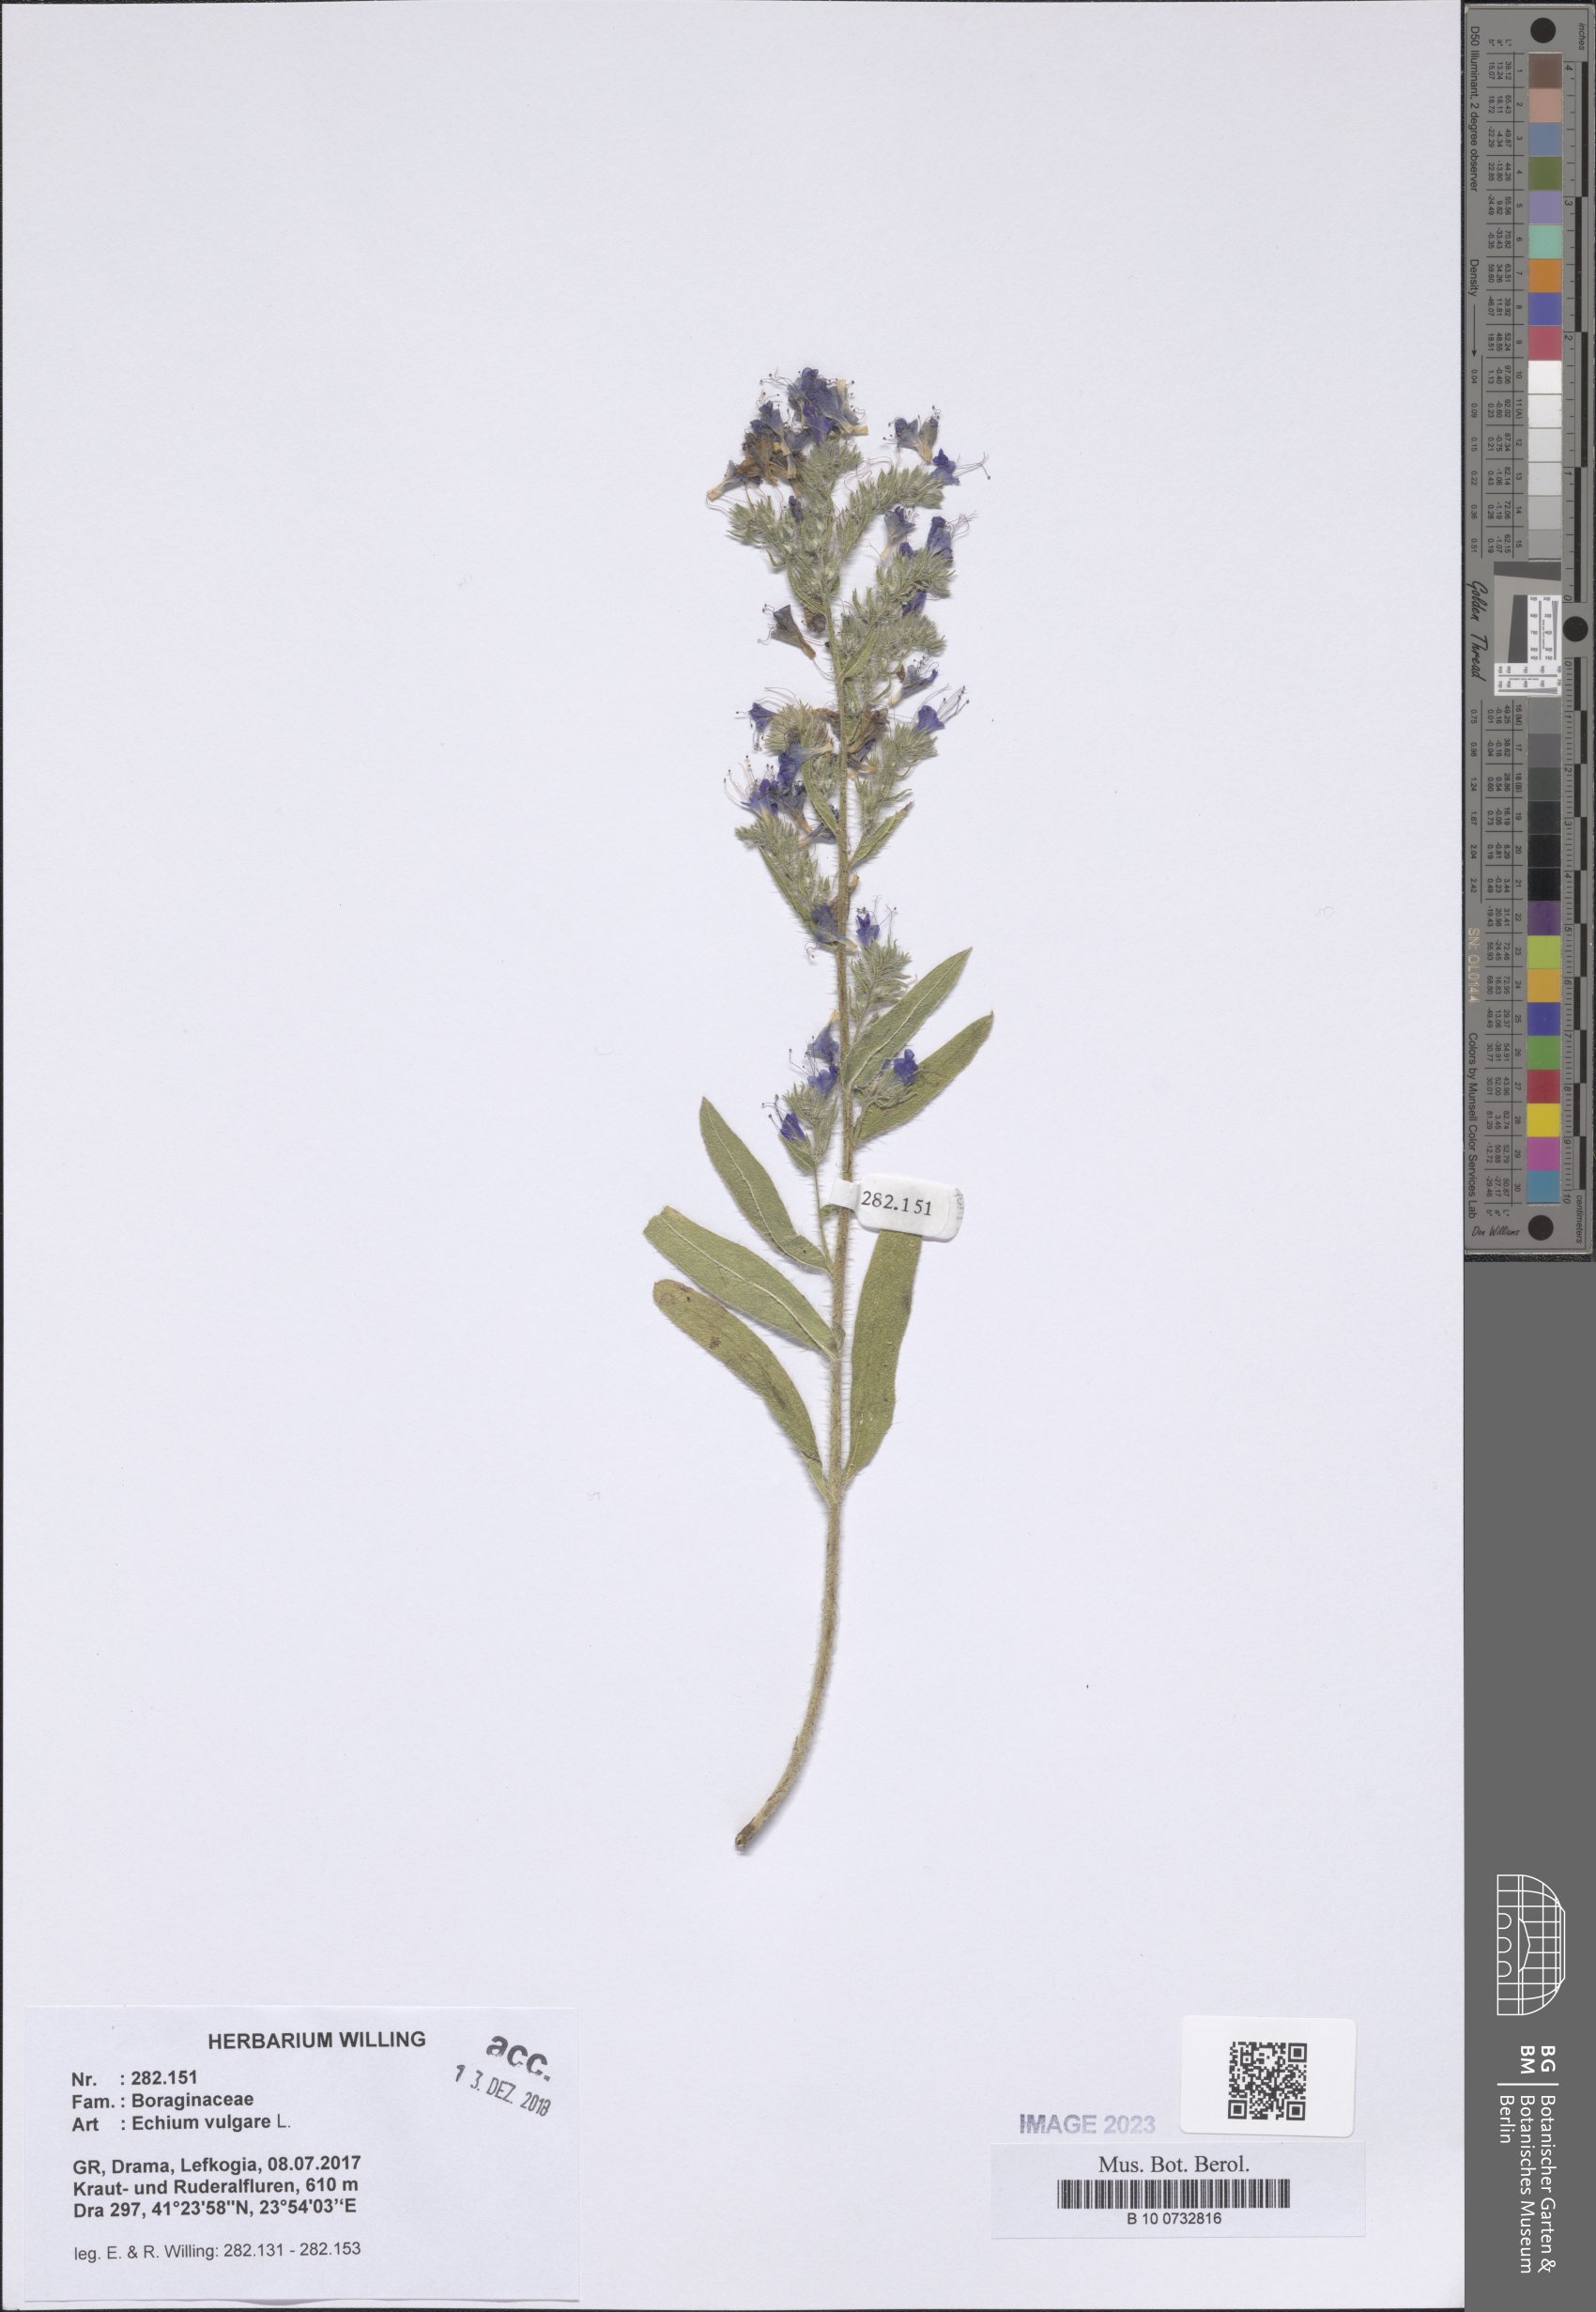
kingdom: Plantae
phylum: Tracheophyta
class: Magnoliopsida
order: Boraginales
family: Boraginaceae
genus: Echium
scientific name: Echium vulgare
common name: Common viper's bugloss
